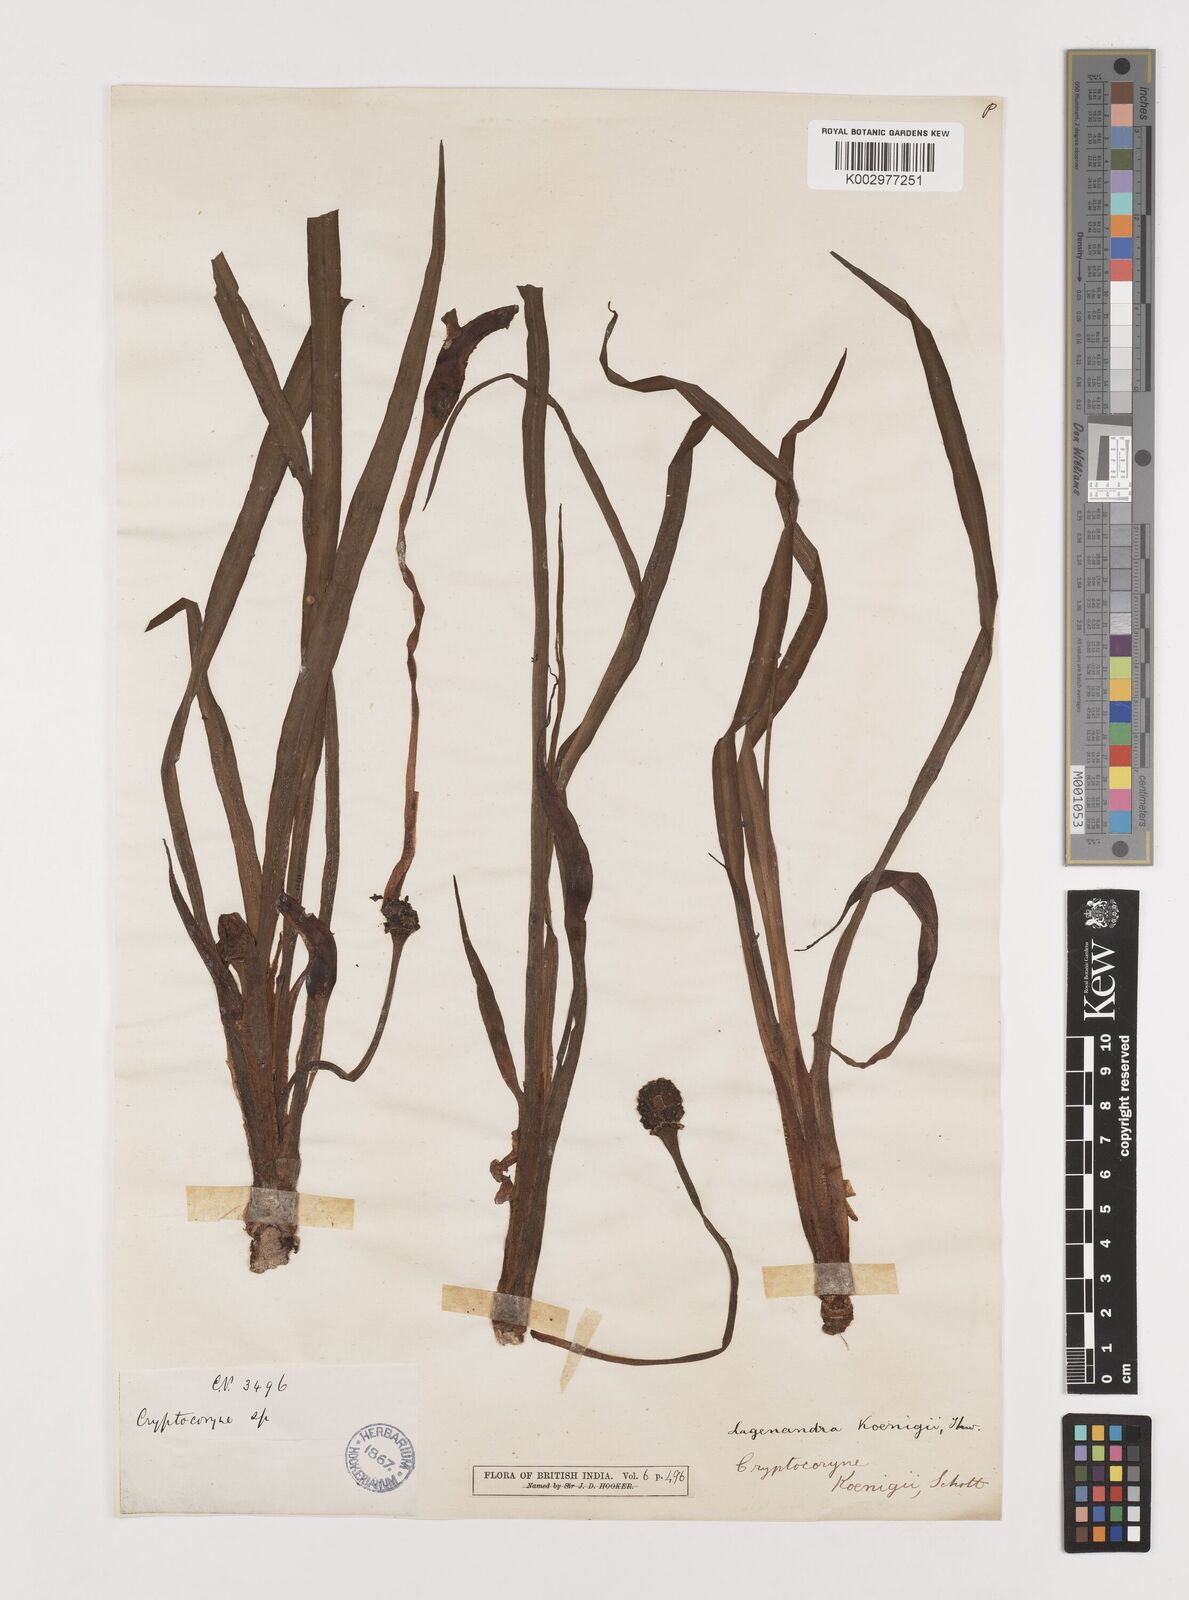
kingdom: Plantae
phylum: Tracheophyta
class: Liliopsida
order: Alismatales
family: Araceae
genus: Lagenandra
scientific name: Lagenandra koenigii
